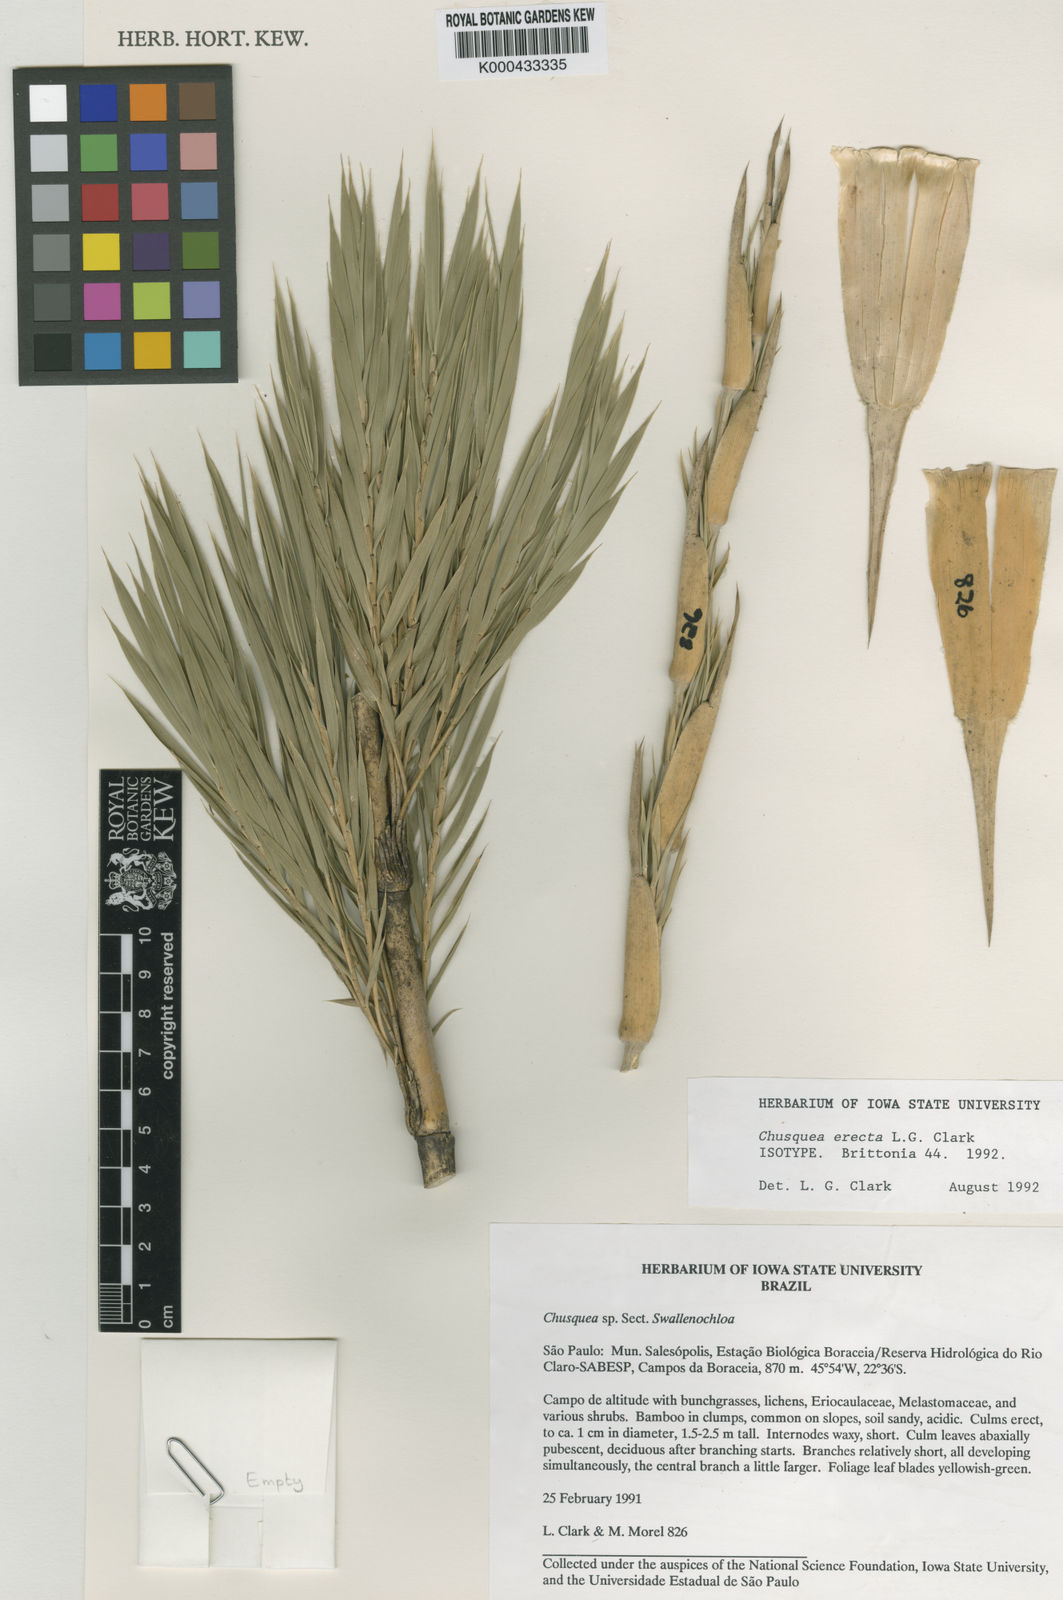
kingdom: Plantae
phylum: Tracheophyta
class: Liliopsida
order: Poales
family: Poaceae
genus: Chusquea
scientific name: Chusquea erecta
